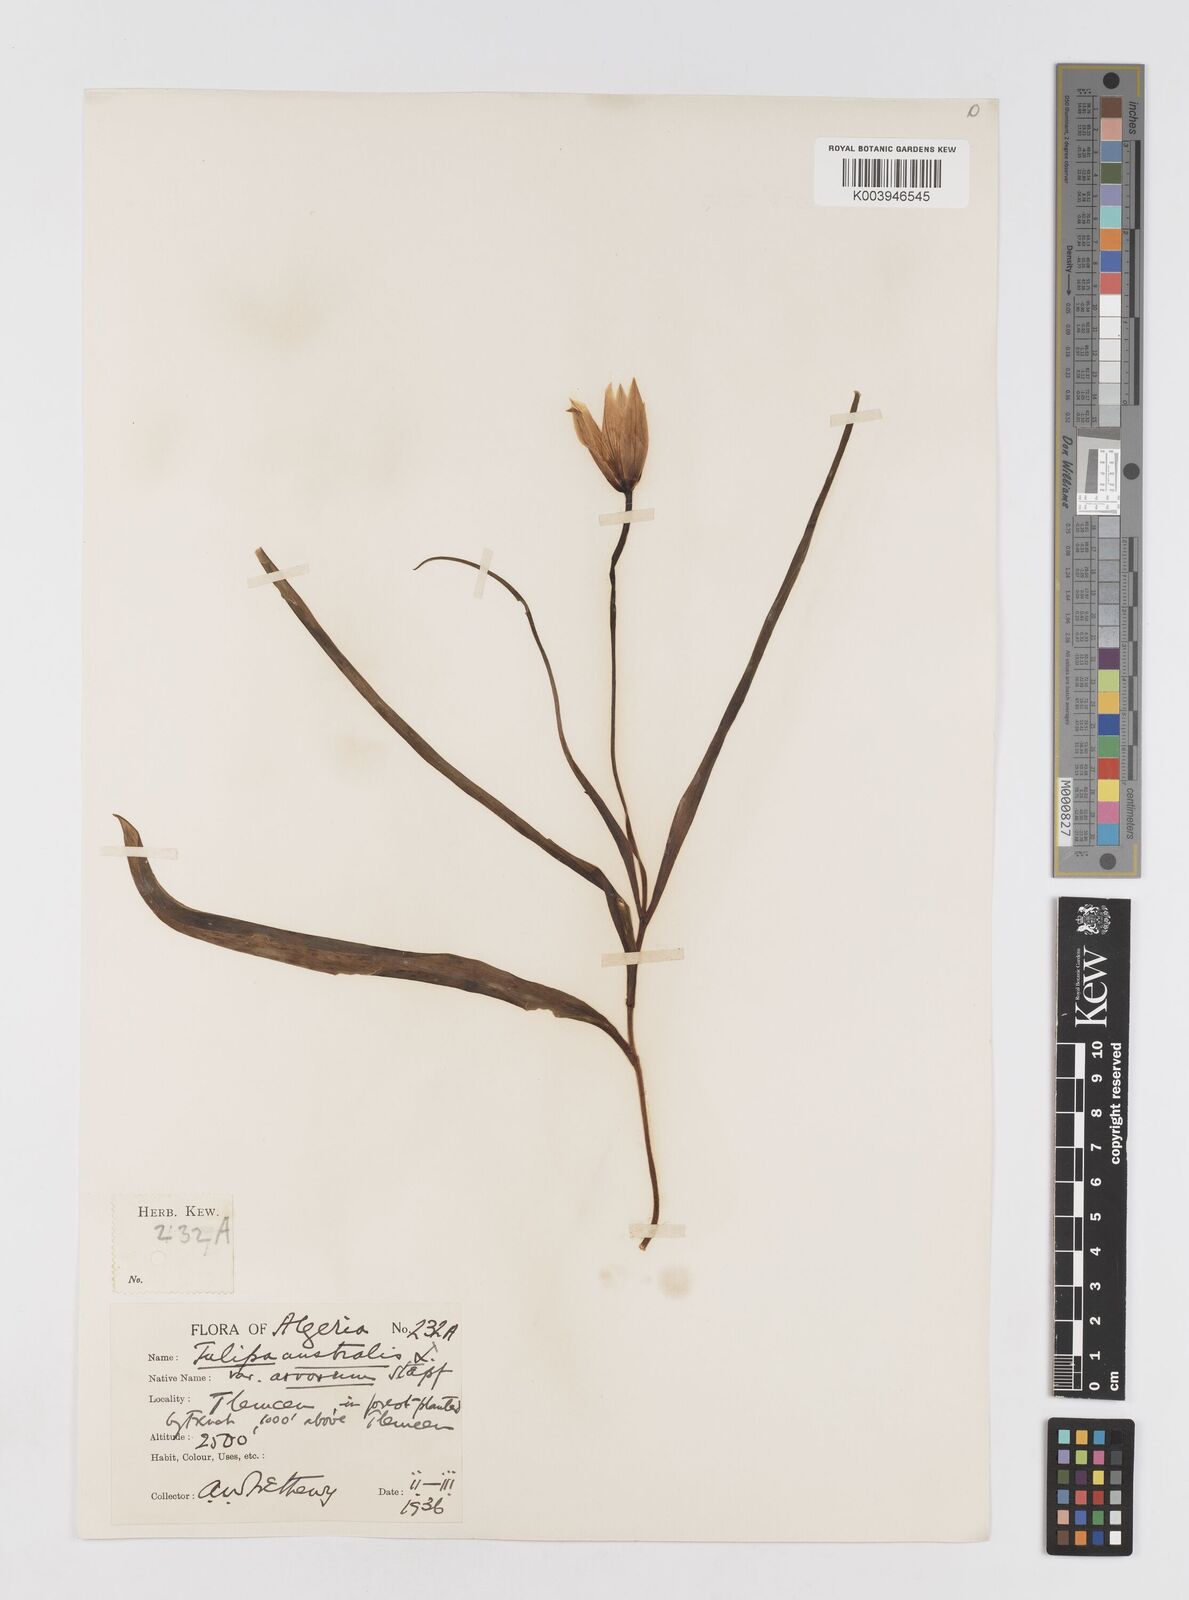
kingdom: Plantae
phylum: Tracheophyta
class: Liliopsida
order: Liliales
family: Liliaceae
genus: Tulipa
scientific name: Tulipa sylvestris
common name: Wild tulip
